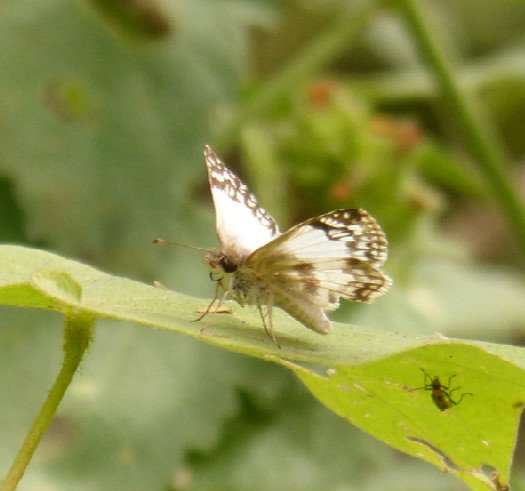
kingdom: Animalia
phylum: Arthropoda
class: Insecta
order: Lepidoptera
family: Hesperiidae
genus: Heliopetes
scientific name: Heliopetes sublinea
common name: East-Mexican White-Skipper
